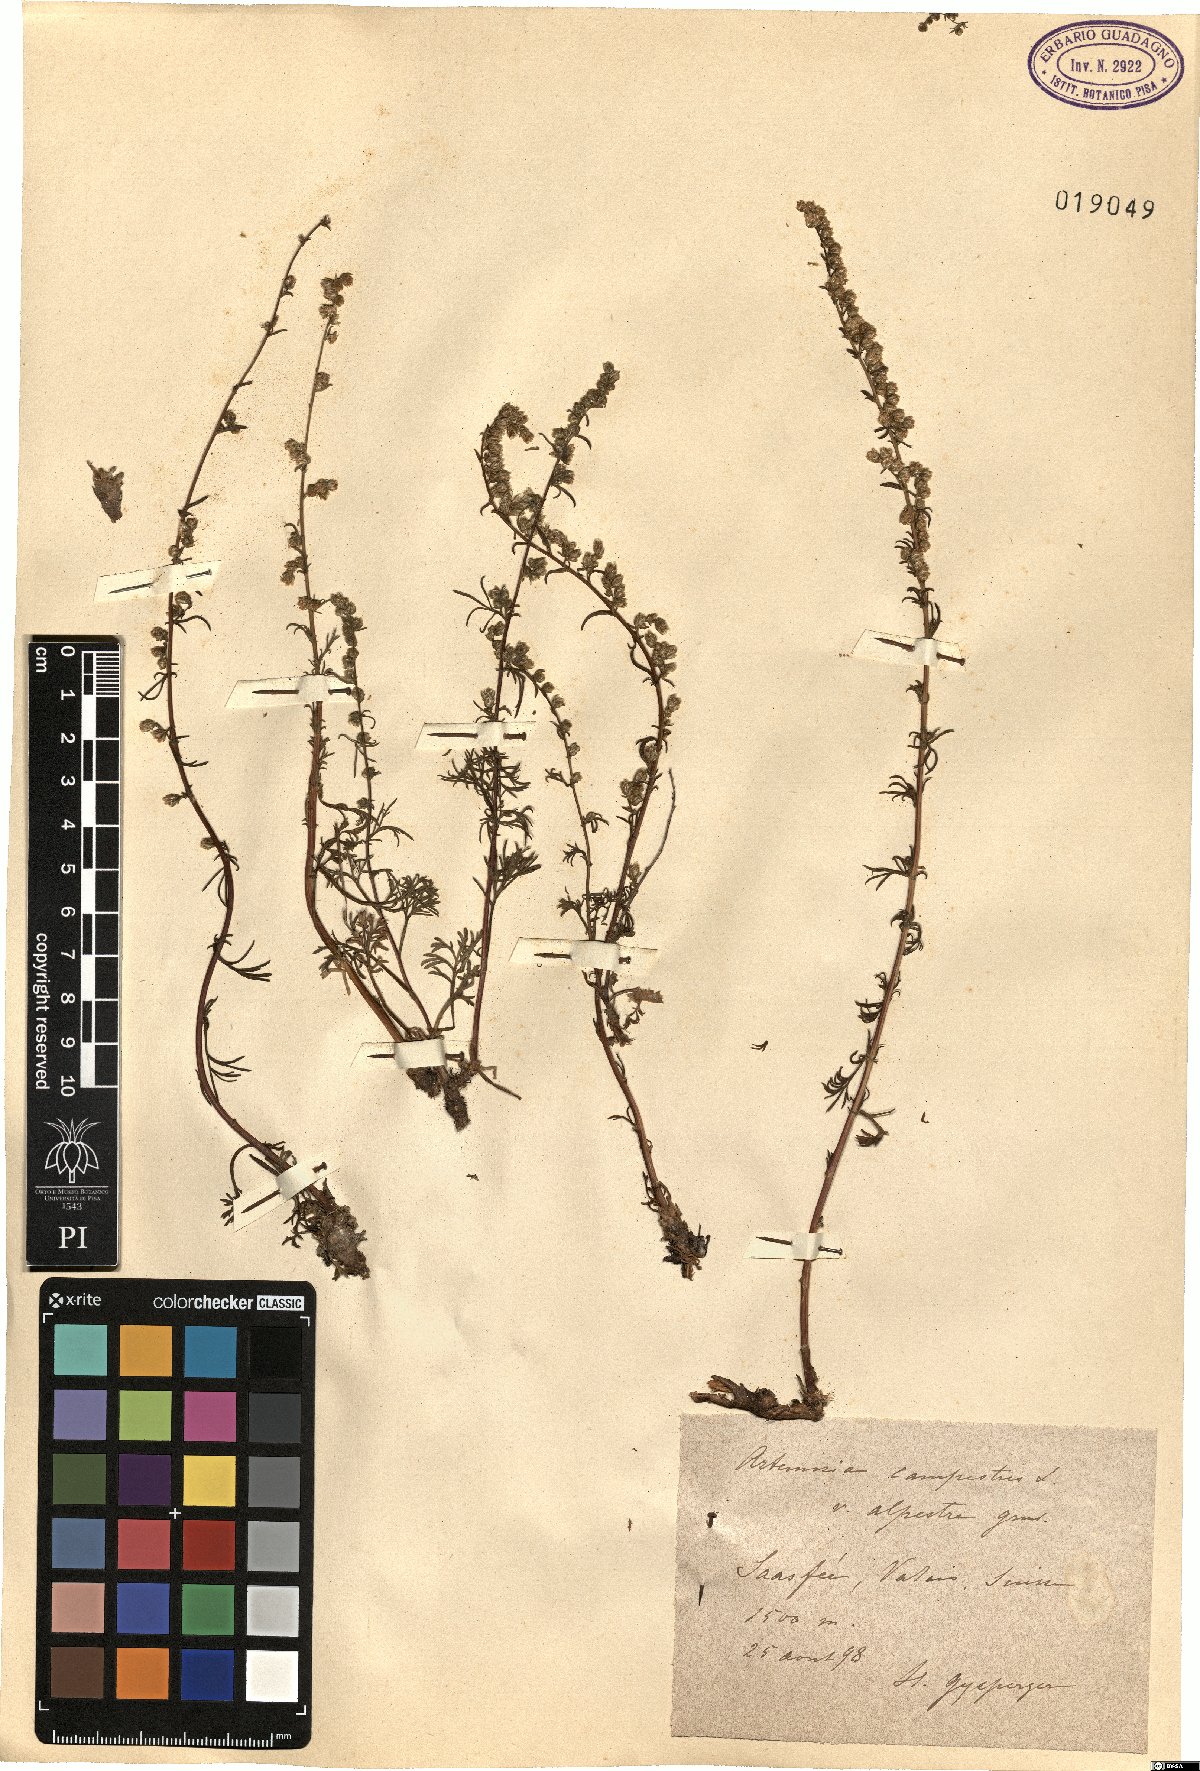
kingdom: Plantae
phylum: Tracheophyta
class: Magnoliopsida
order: Asterales
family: Asteraceae
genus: Artemisia
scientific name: Artemisia campestris
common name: Field wormwood
